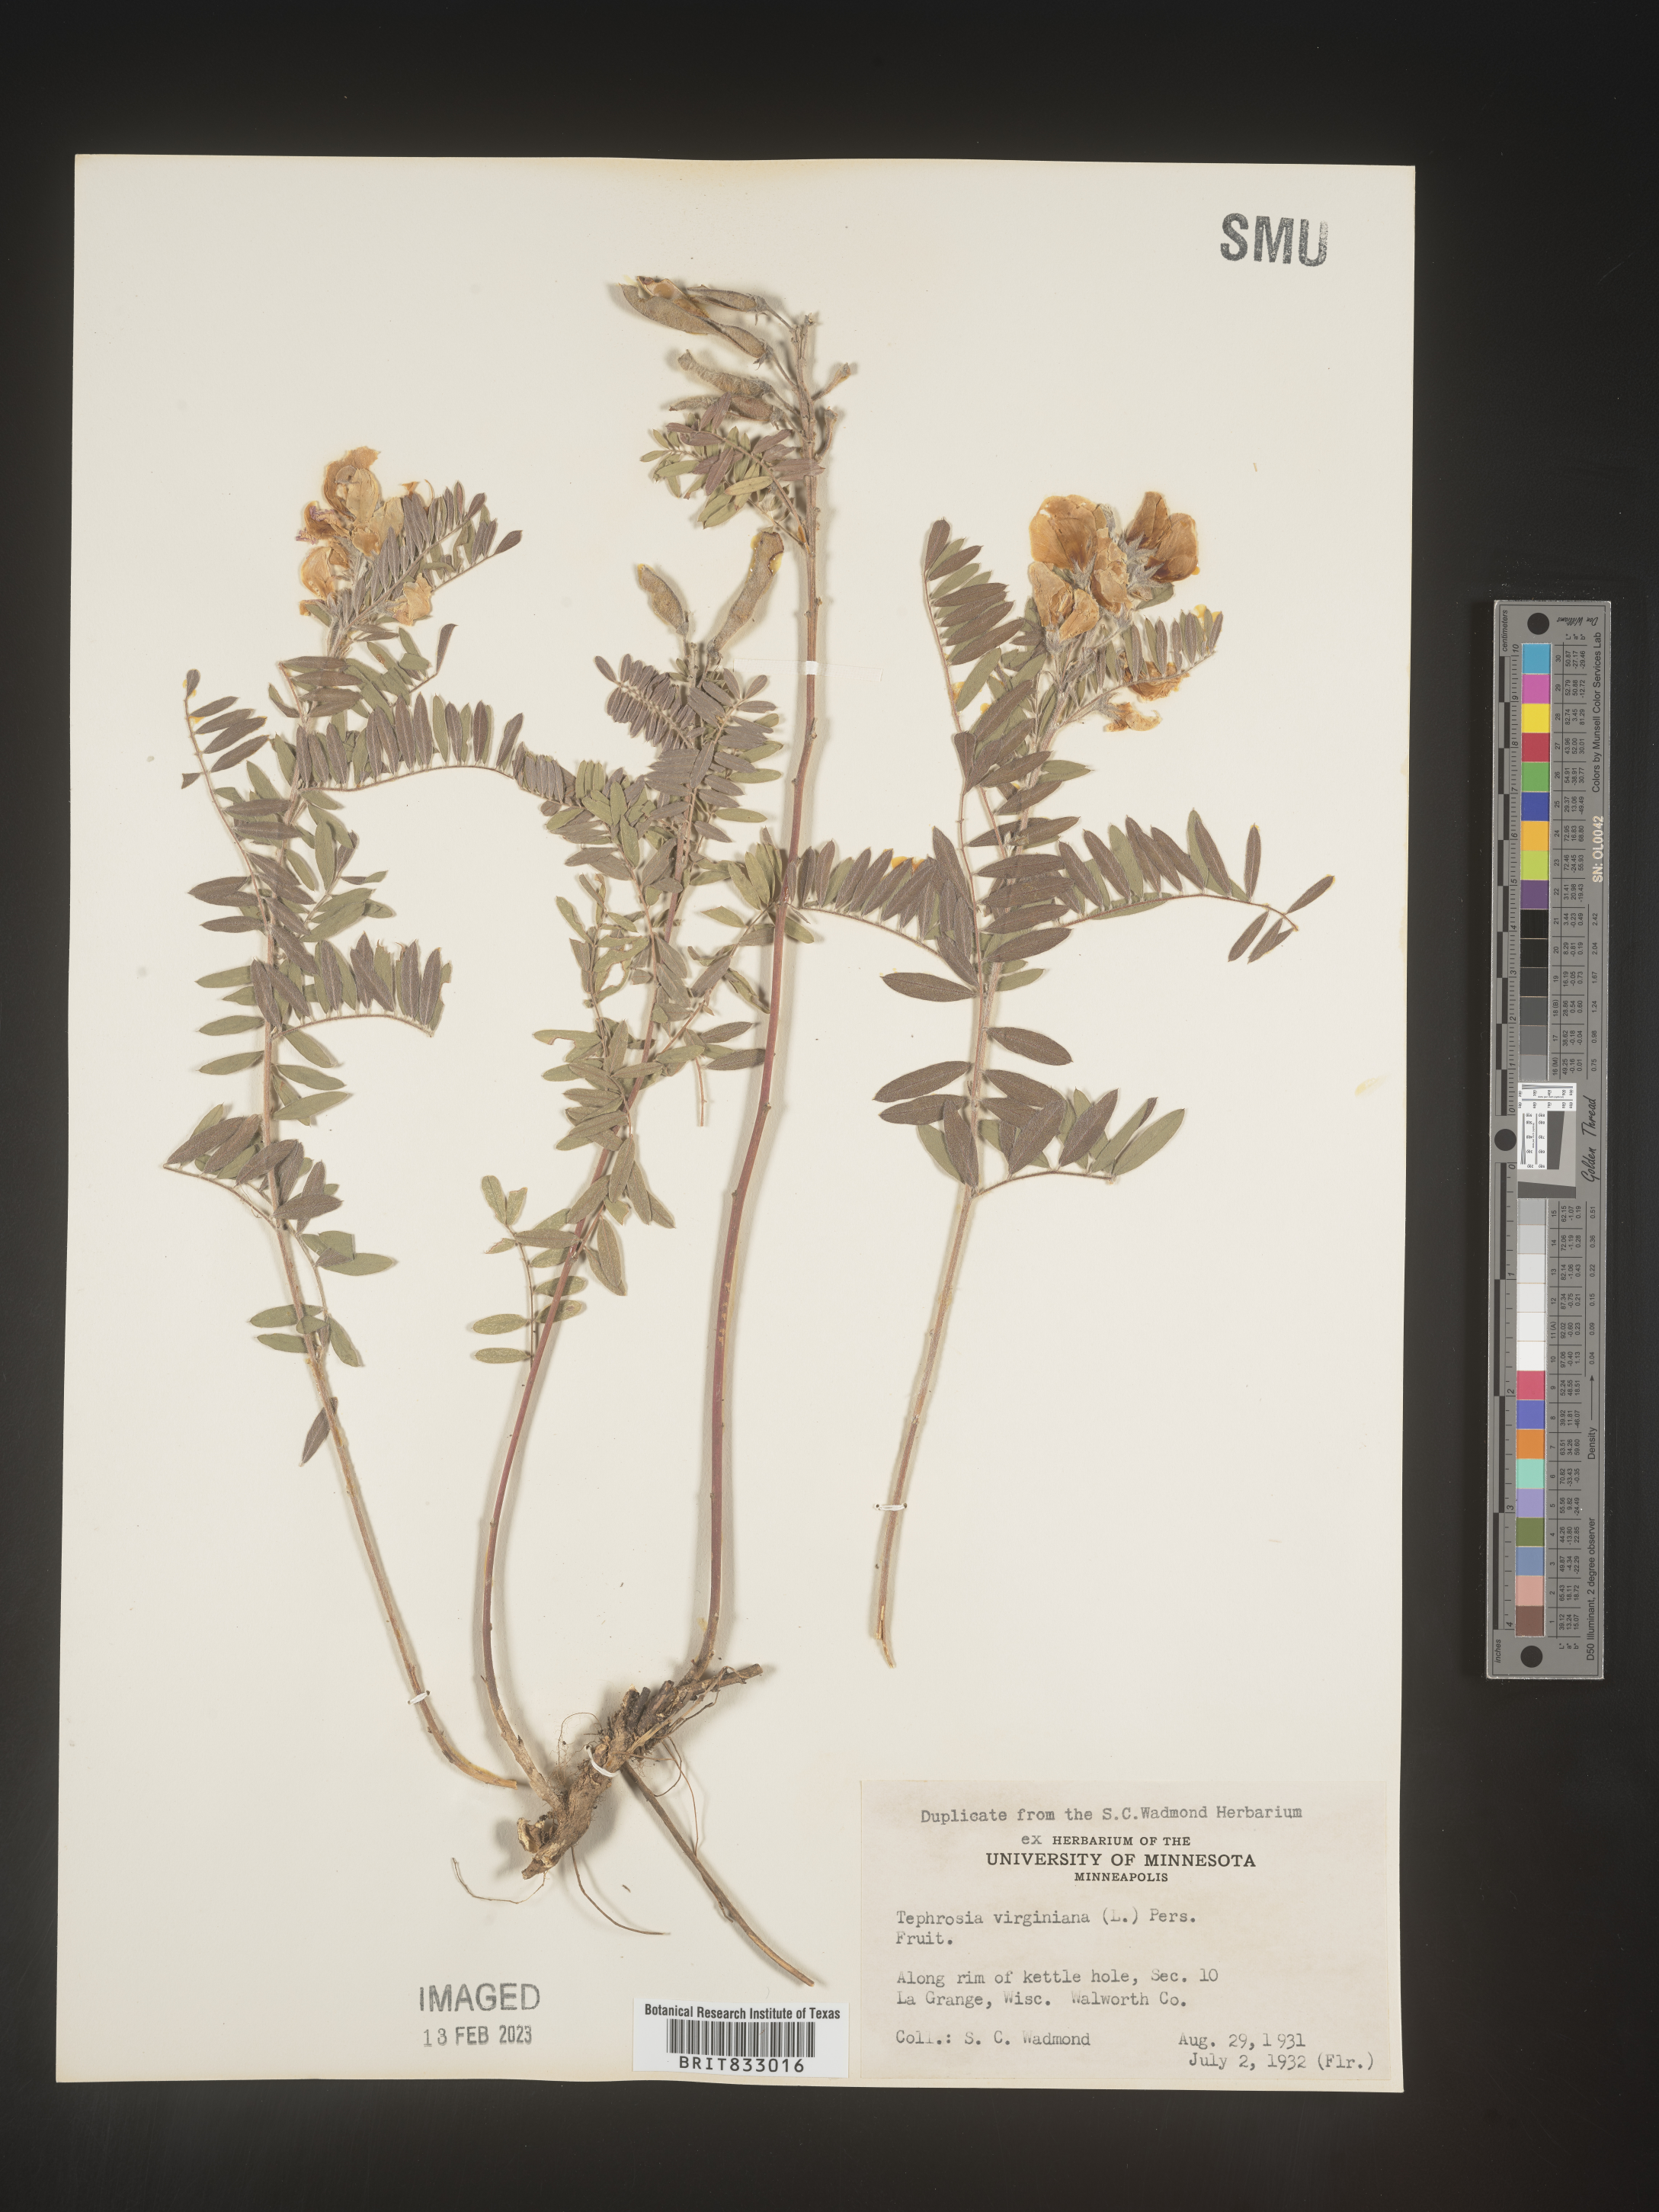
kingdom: Plantae
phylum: Tracheophyta
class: Magnoliopsida
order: Fabales
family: Fabaceae
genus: Tephrosia
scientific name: Tephrosia virginiana
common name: Rabbit-pea
